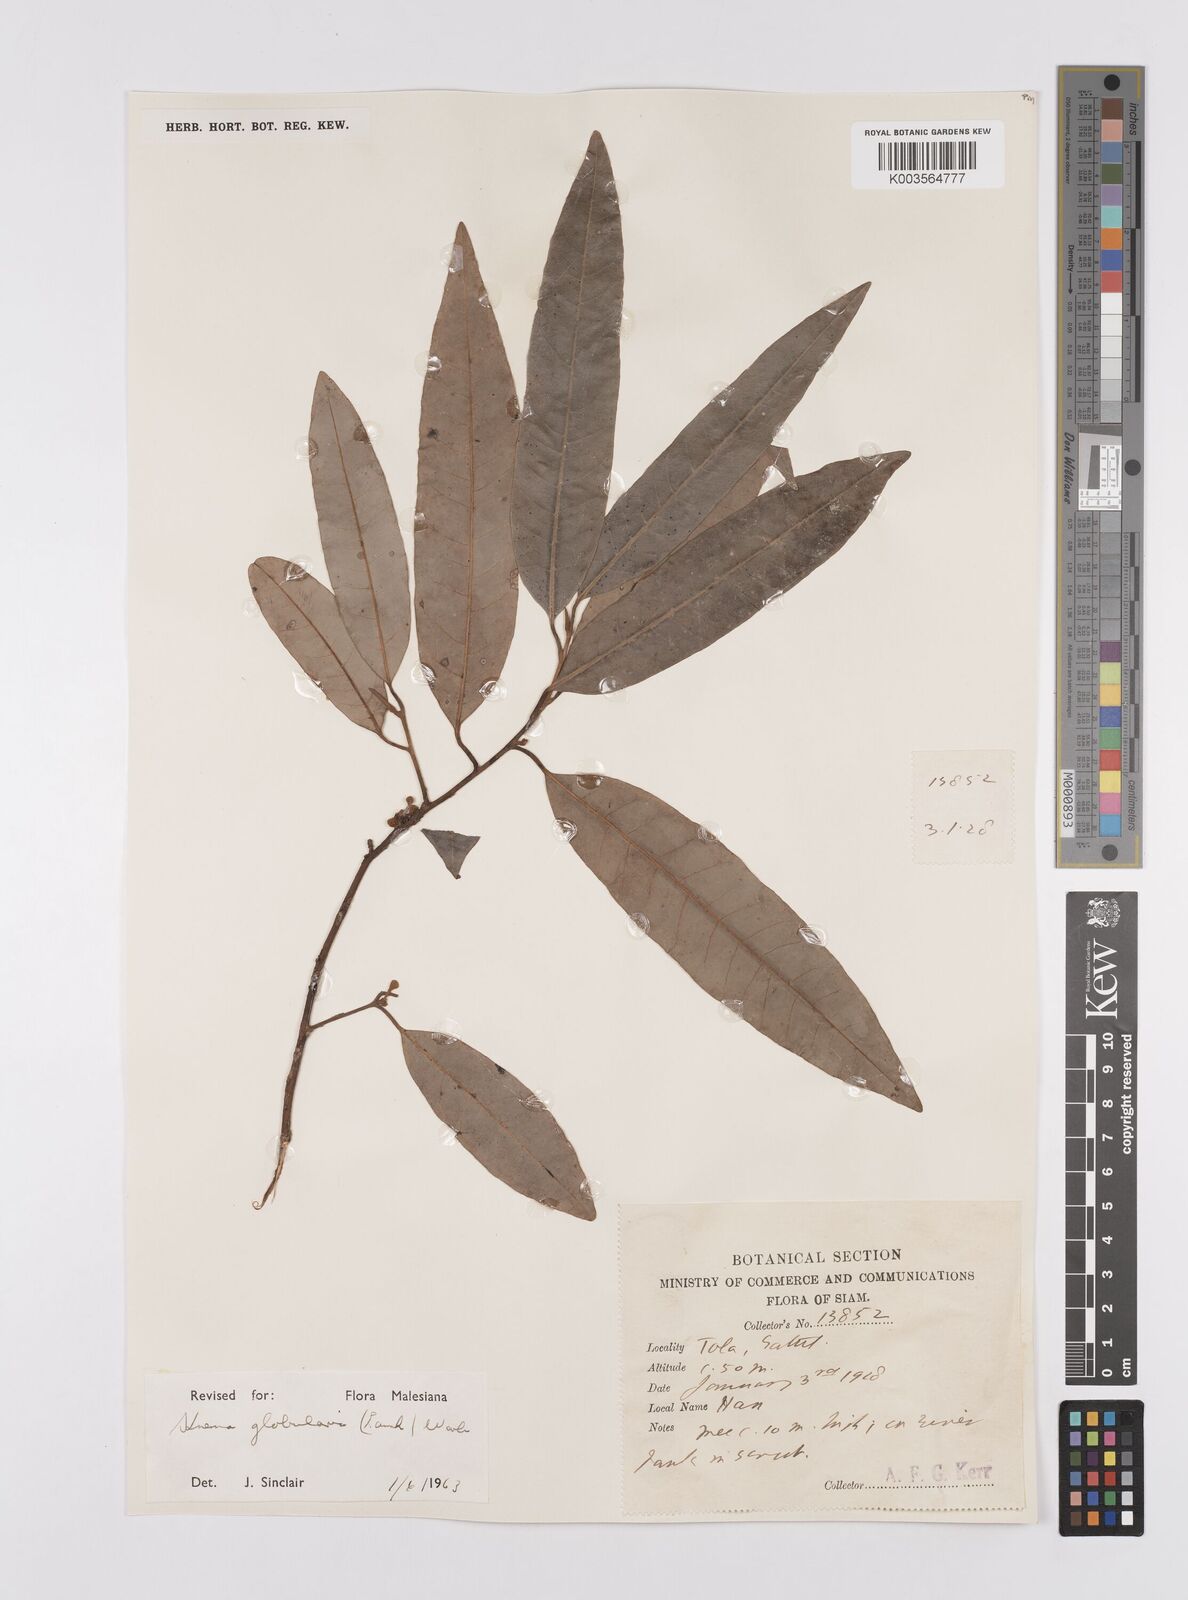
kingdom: Plantae
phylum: Tracheophyta
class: Magnoliopsida
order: Magnoliales
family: Myristicaceae
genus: Knema
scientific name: Knema globularia
